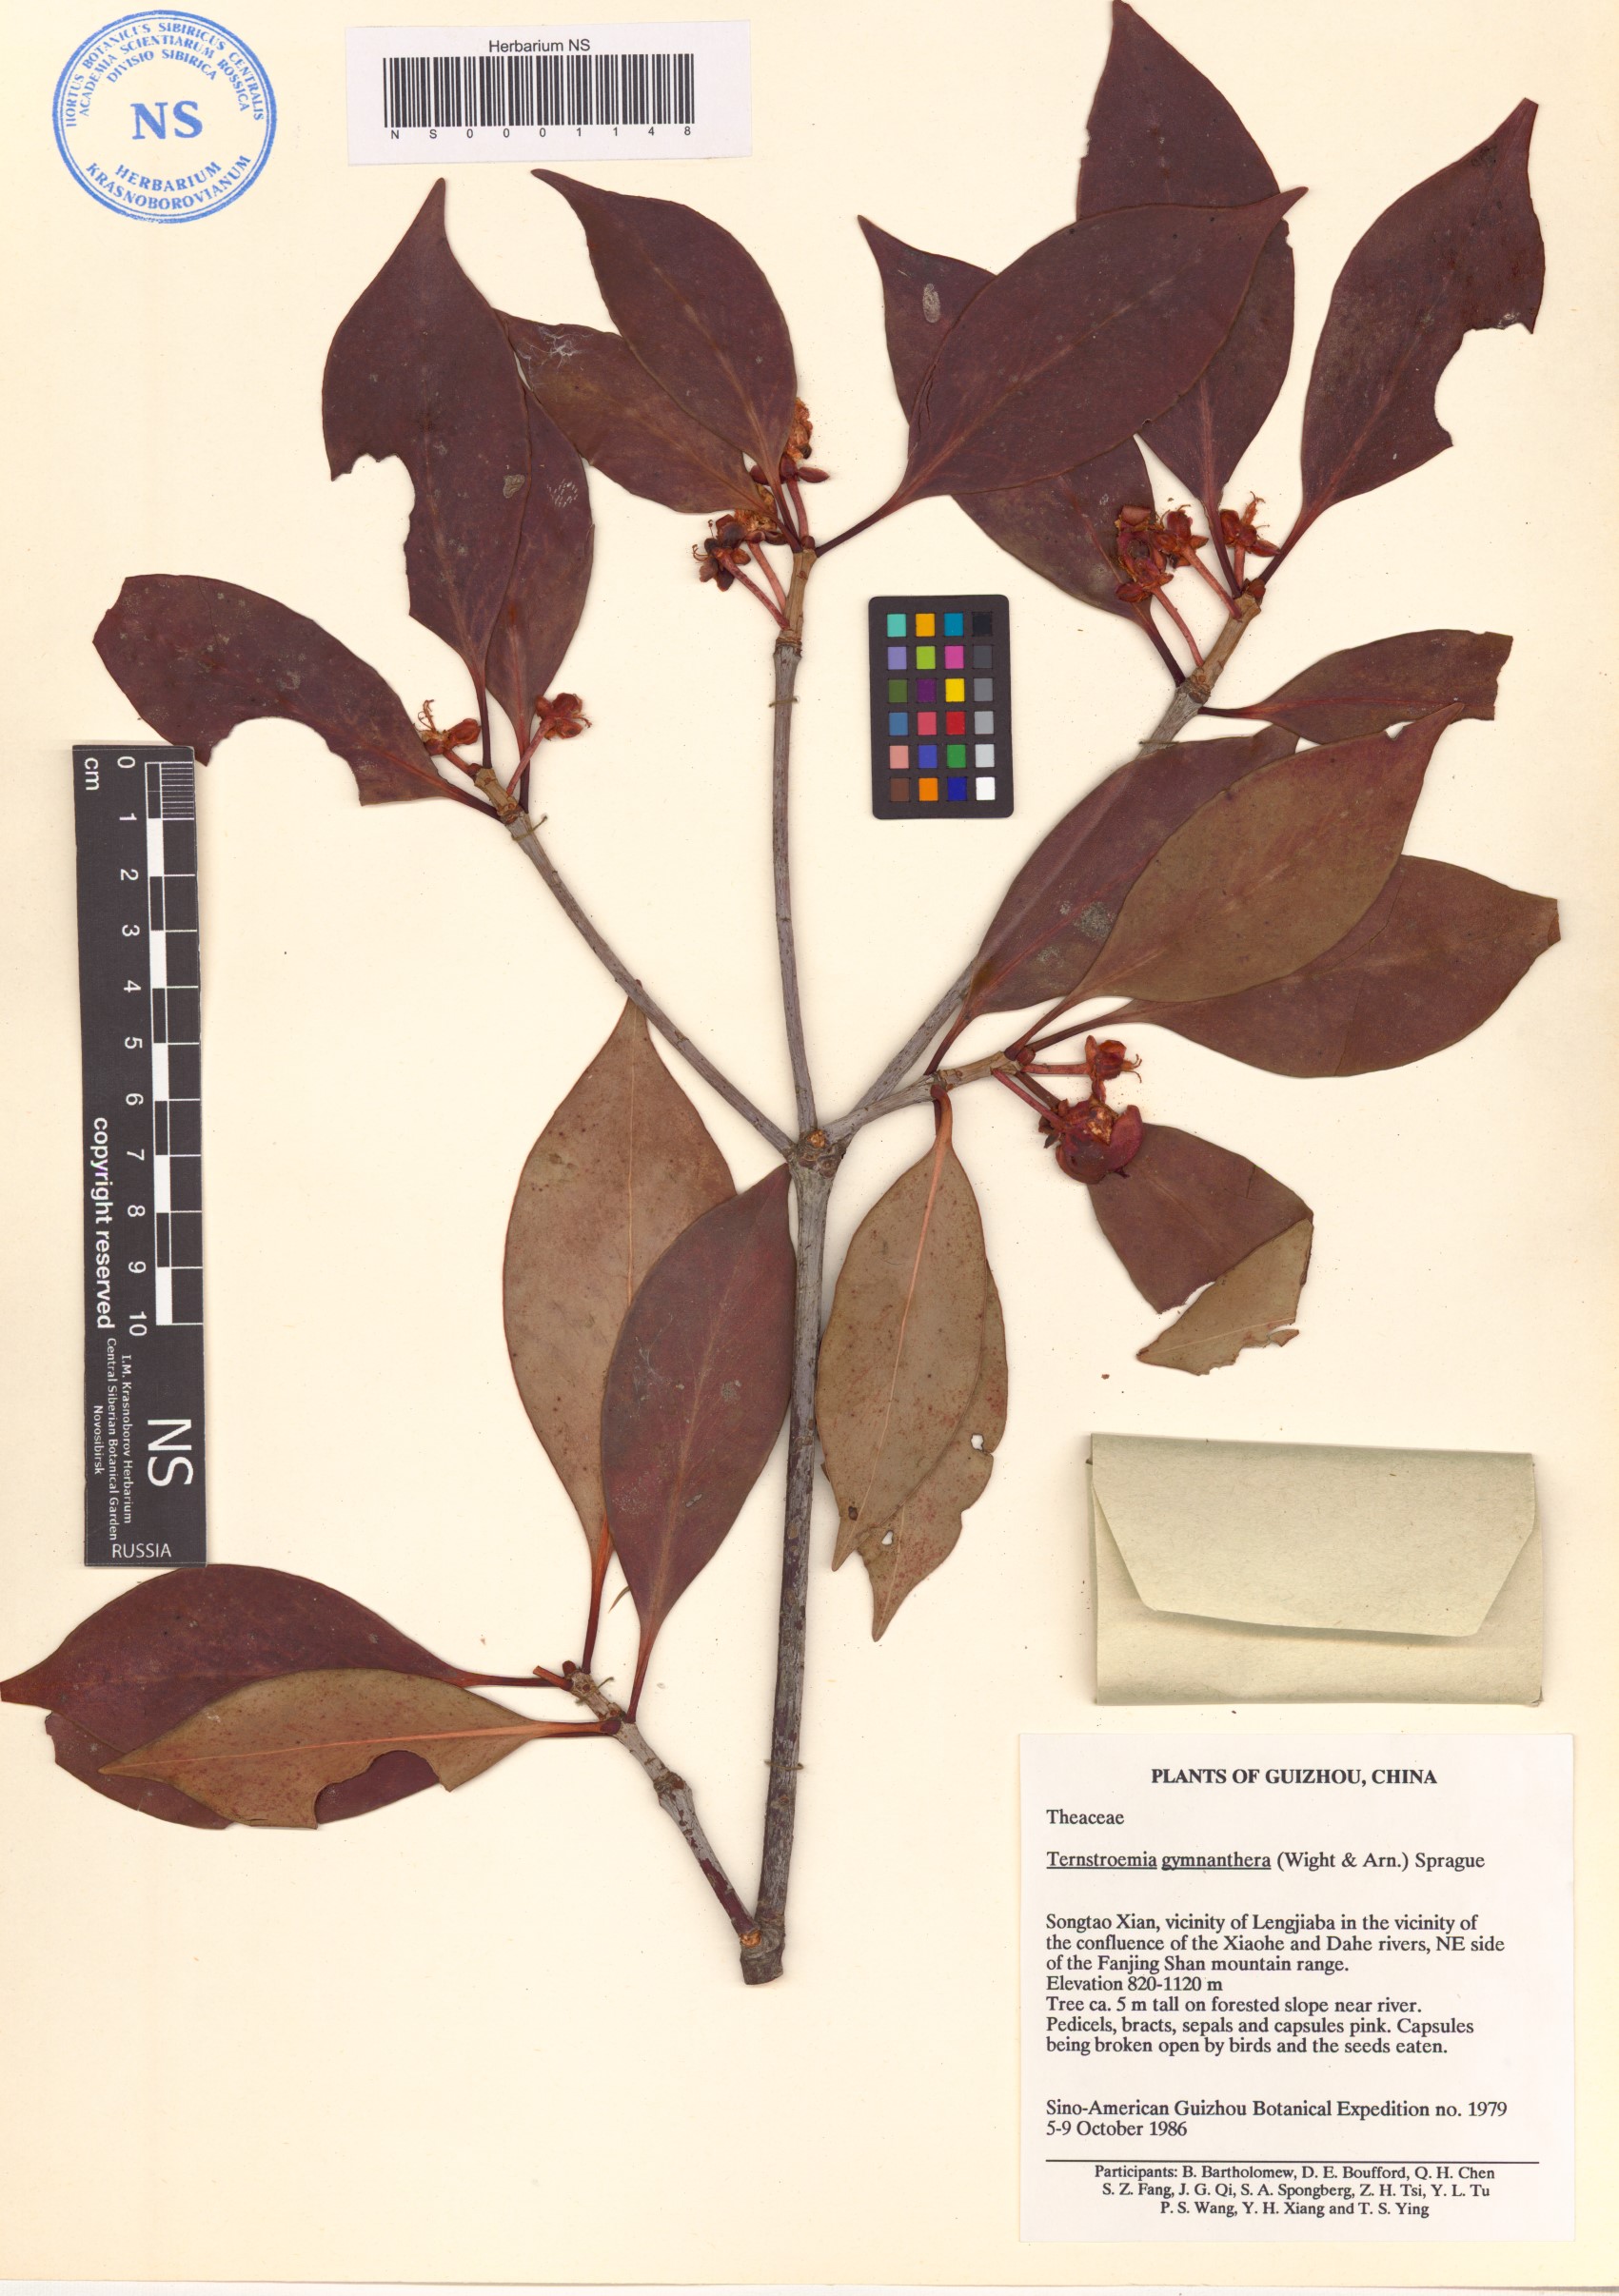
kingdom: Plantae
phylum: Tracheophyta
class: Magnoliopsida
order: Ericales
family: Pentaphylacaceae
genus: Ternstroemia
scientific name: Ternstroemia gymnanthera
